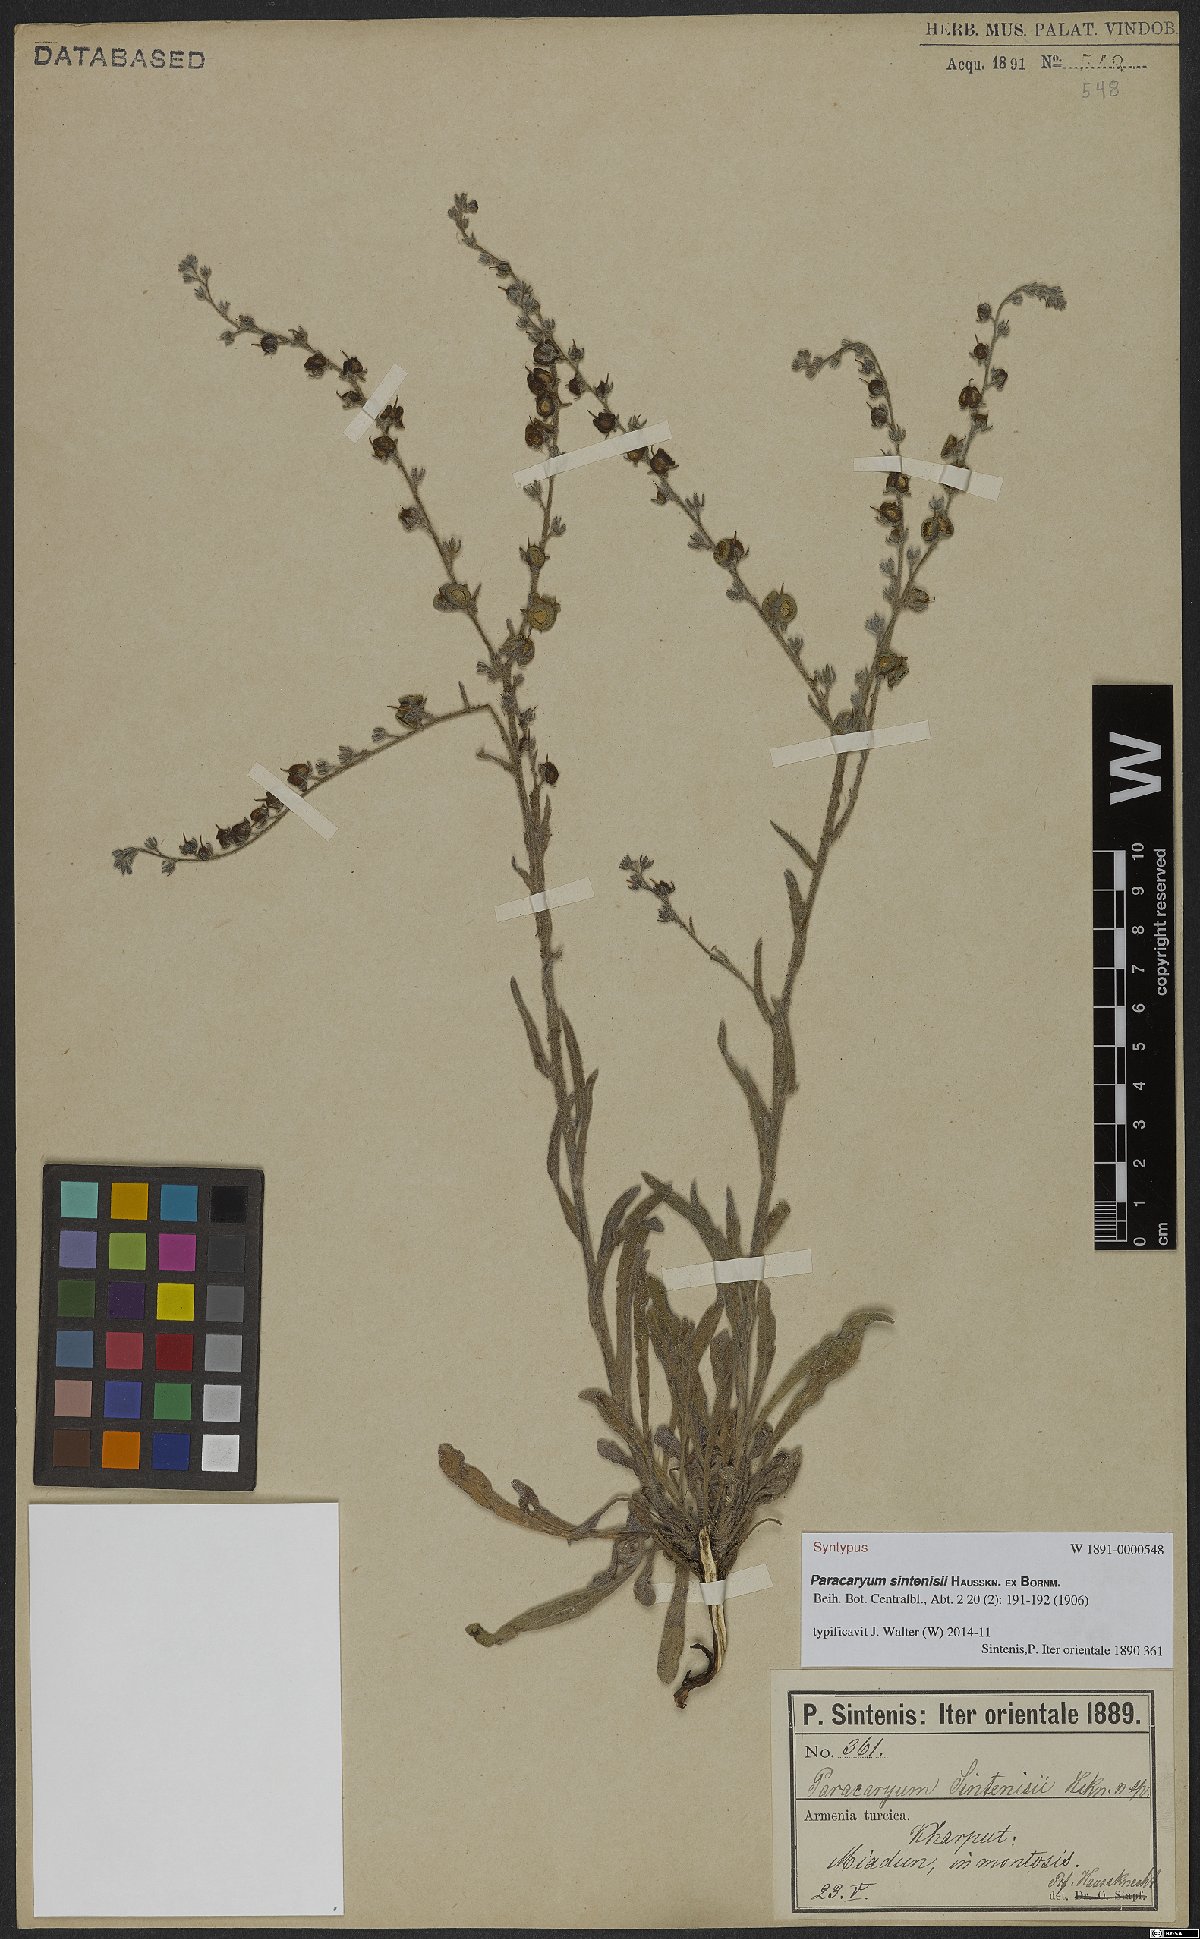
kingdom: Plantae
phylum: Tracheophyta
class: Magnoliopsida
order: Boraginales
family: Boraginaceae
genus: Paracaryum
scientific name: Paracaryum sintenisii
